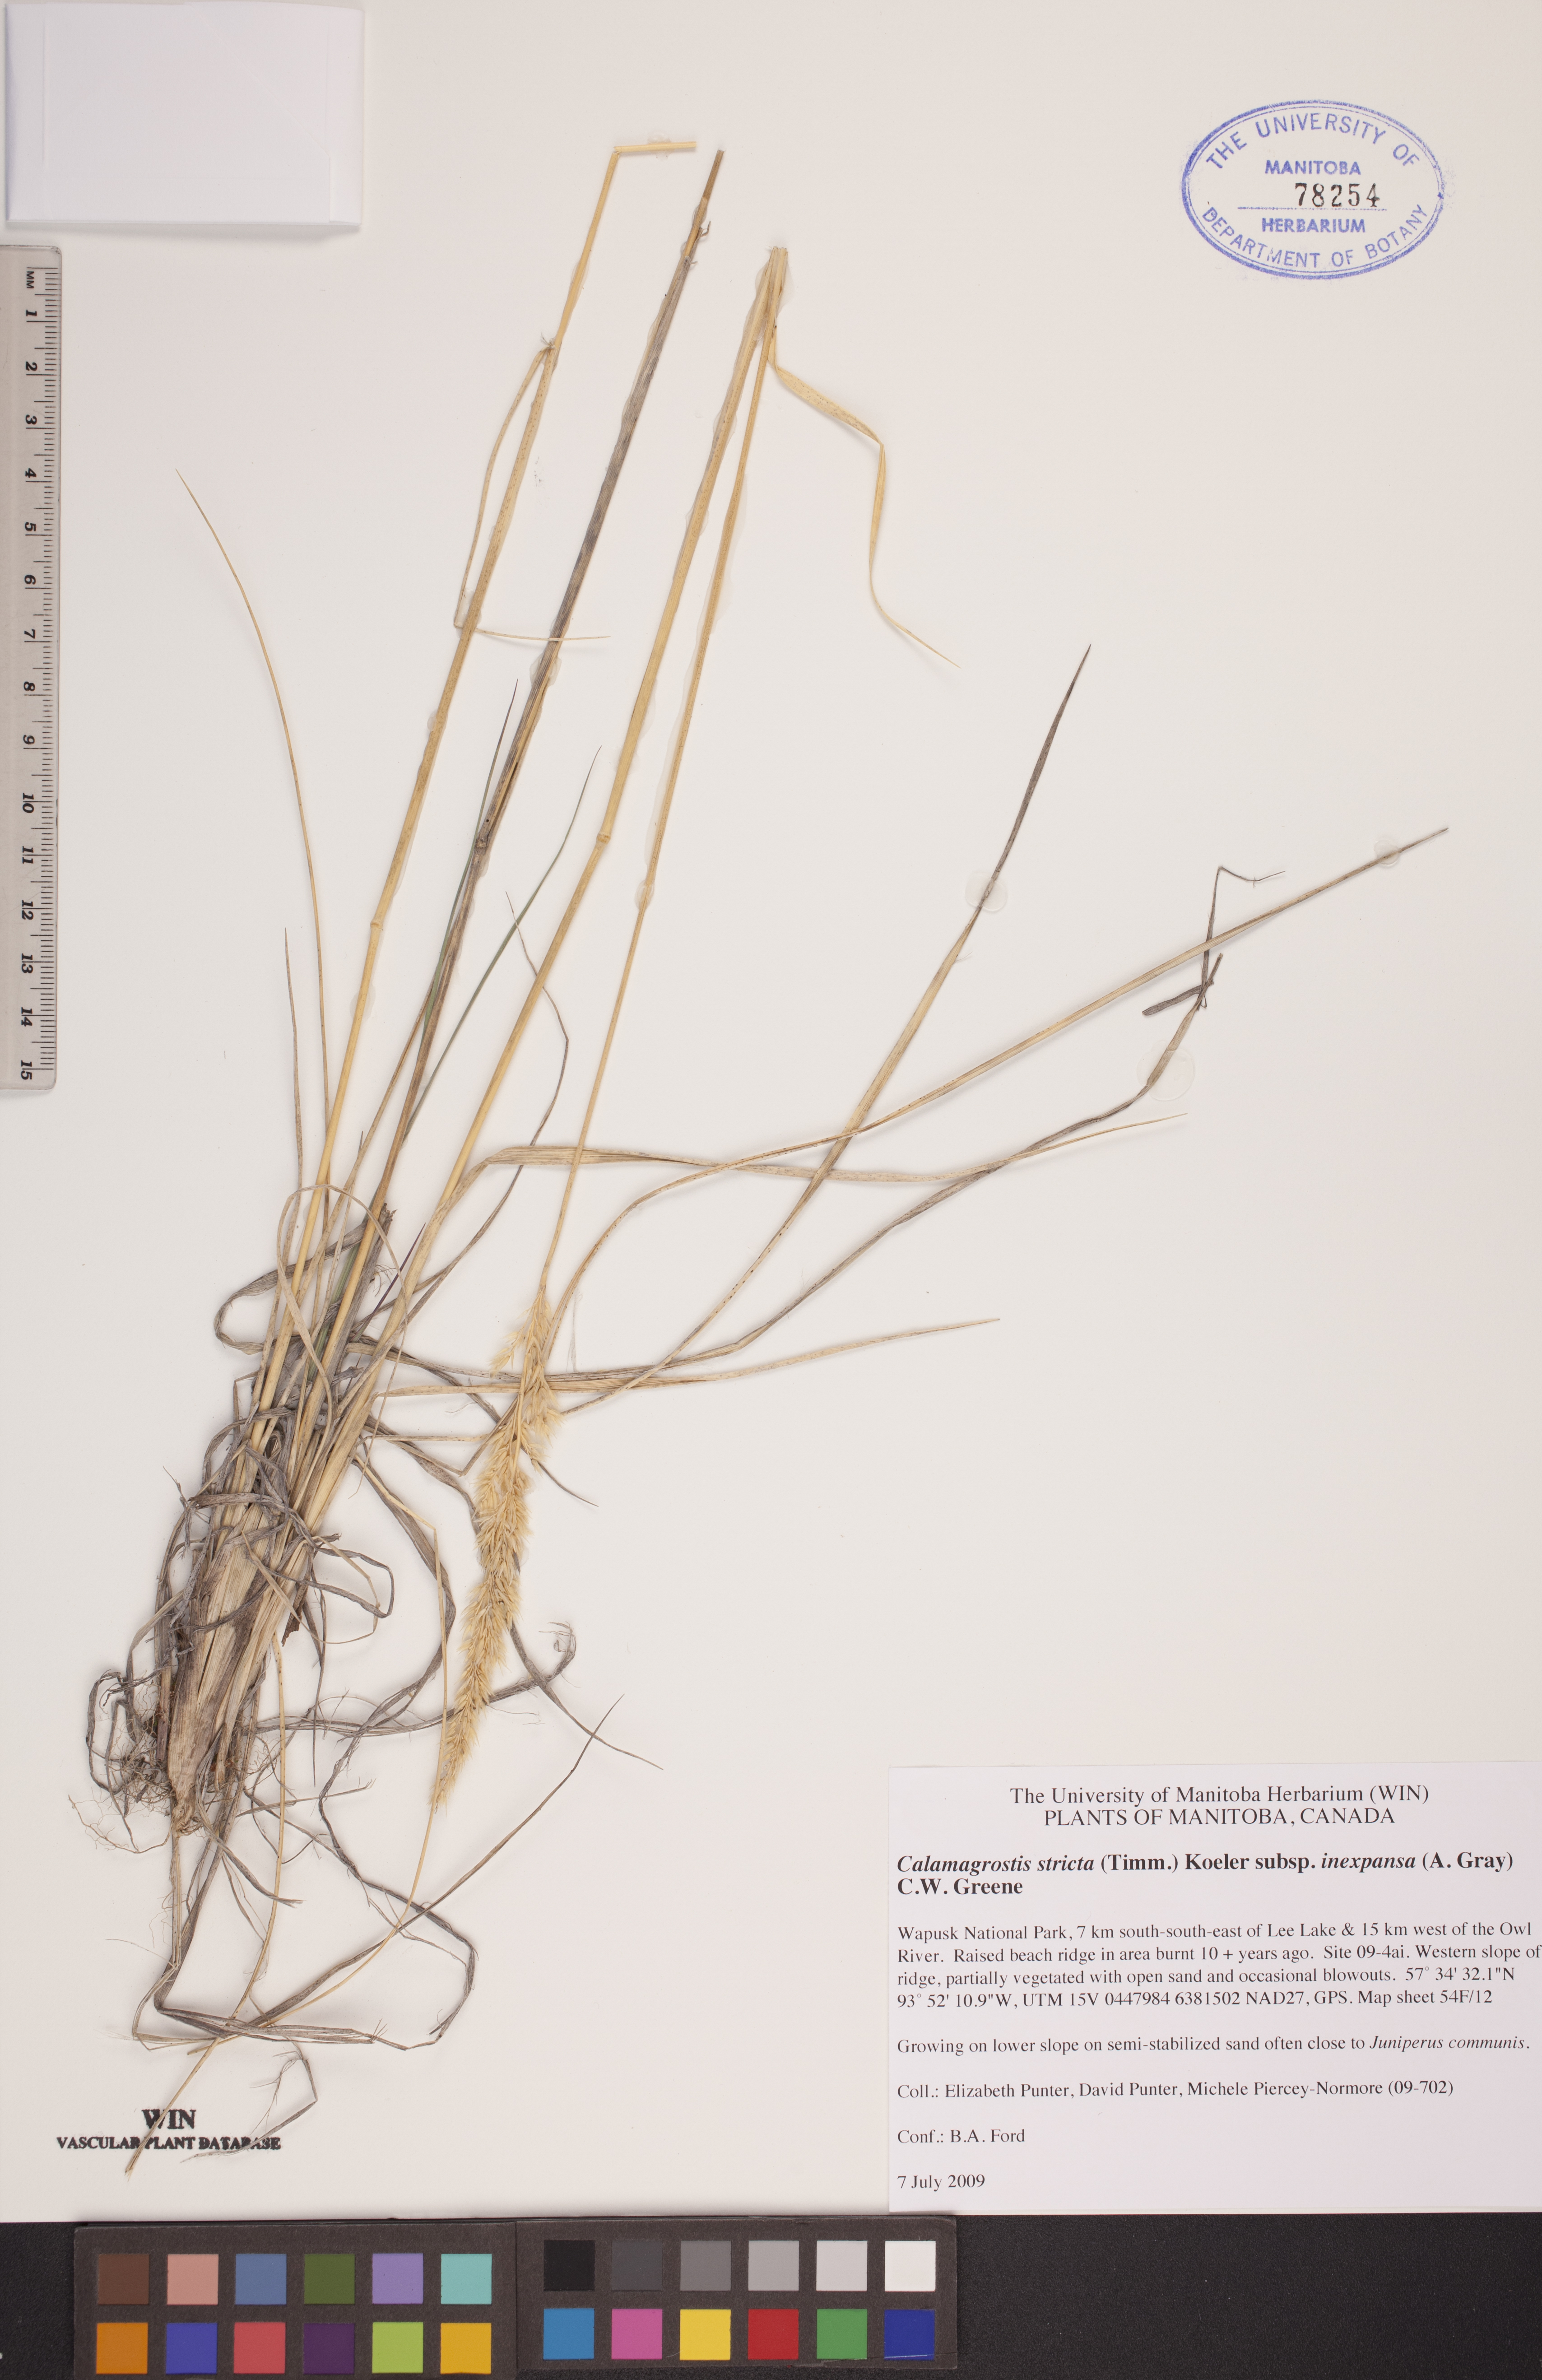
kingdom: Plantae
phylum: Tracheophyta
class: Liliopsida
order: Poales
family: Poaceae
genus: Calamagrostis
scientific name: Calamagrostis inexpansa
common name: Northern reedgrass
